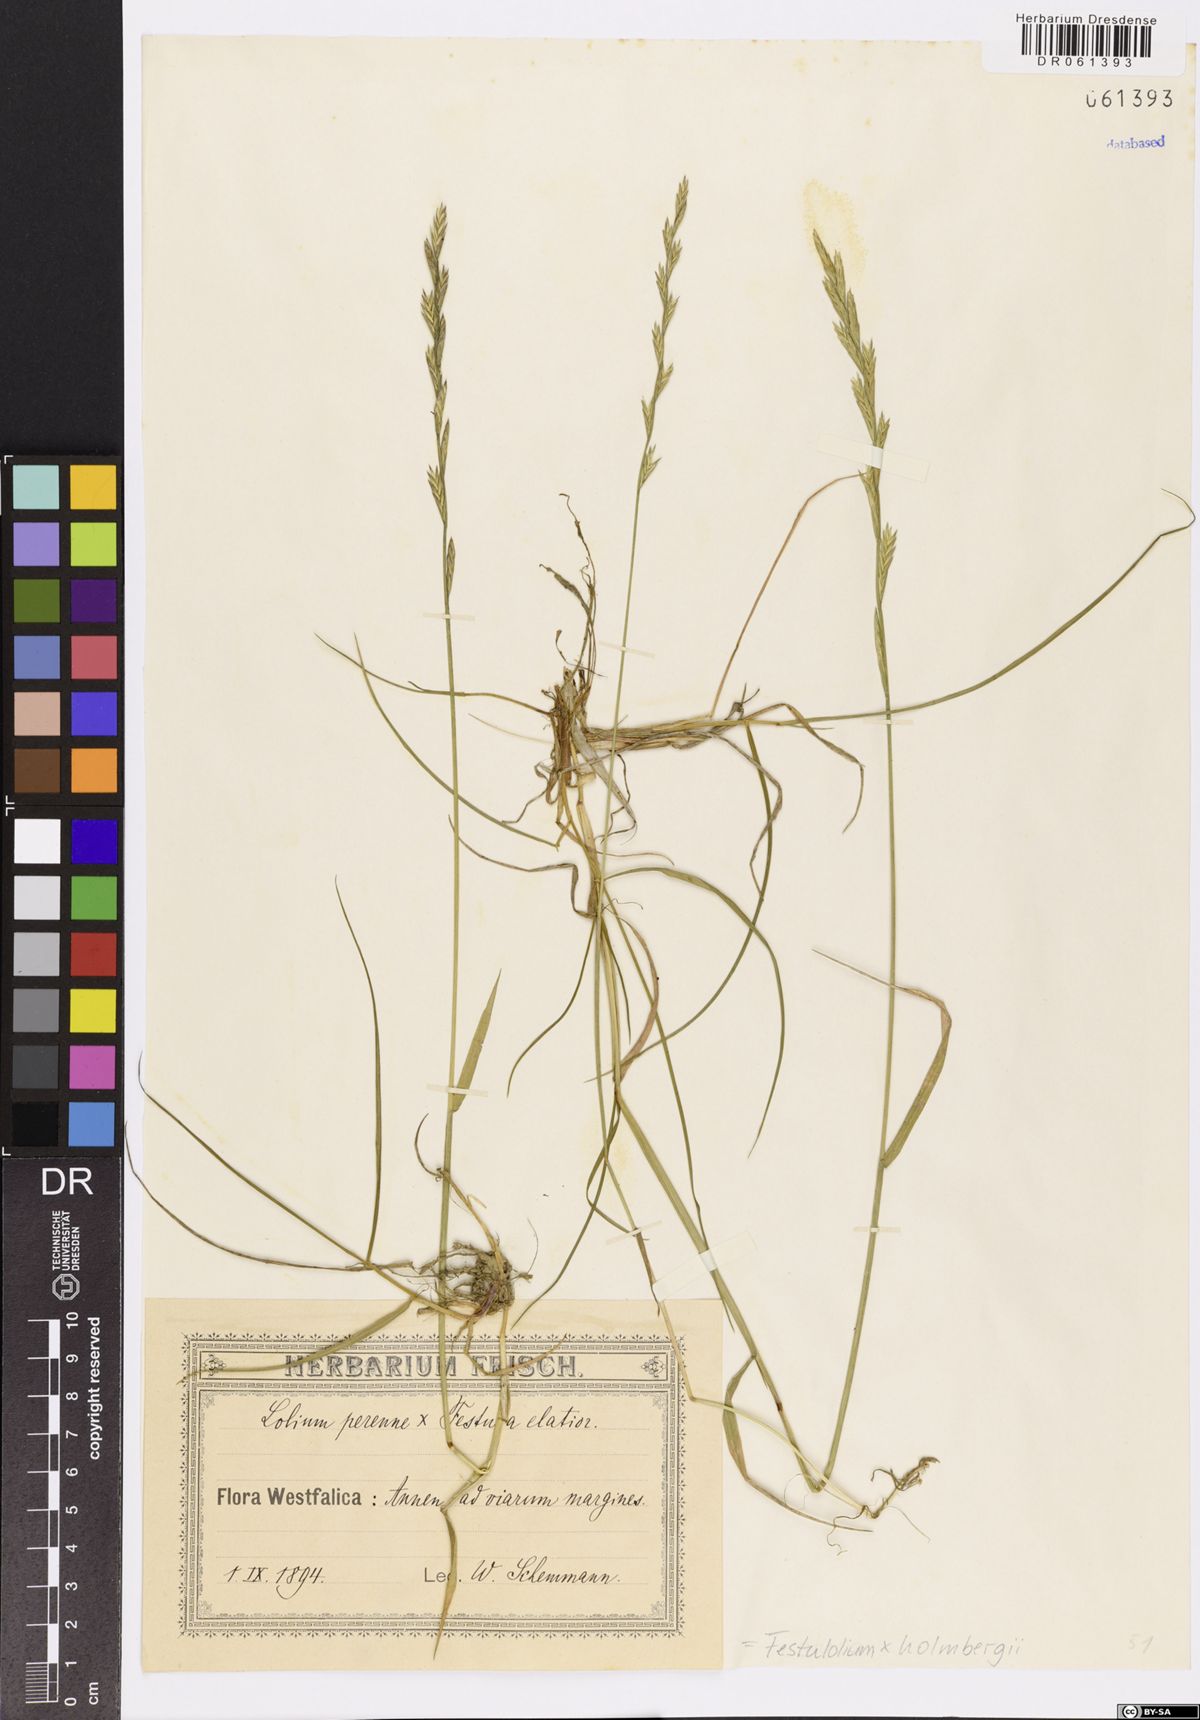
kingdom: Plantae
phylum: Tracheophyta
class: Liliopsida
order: Poales
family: Poaceae
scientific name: Poaceae
